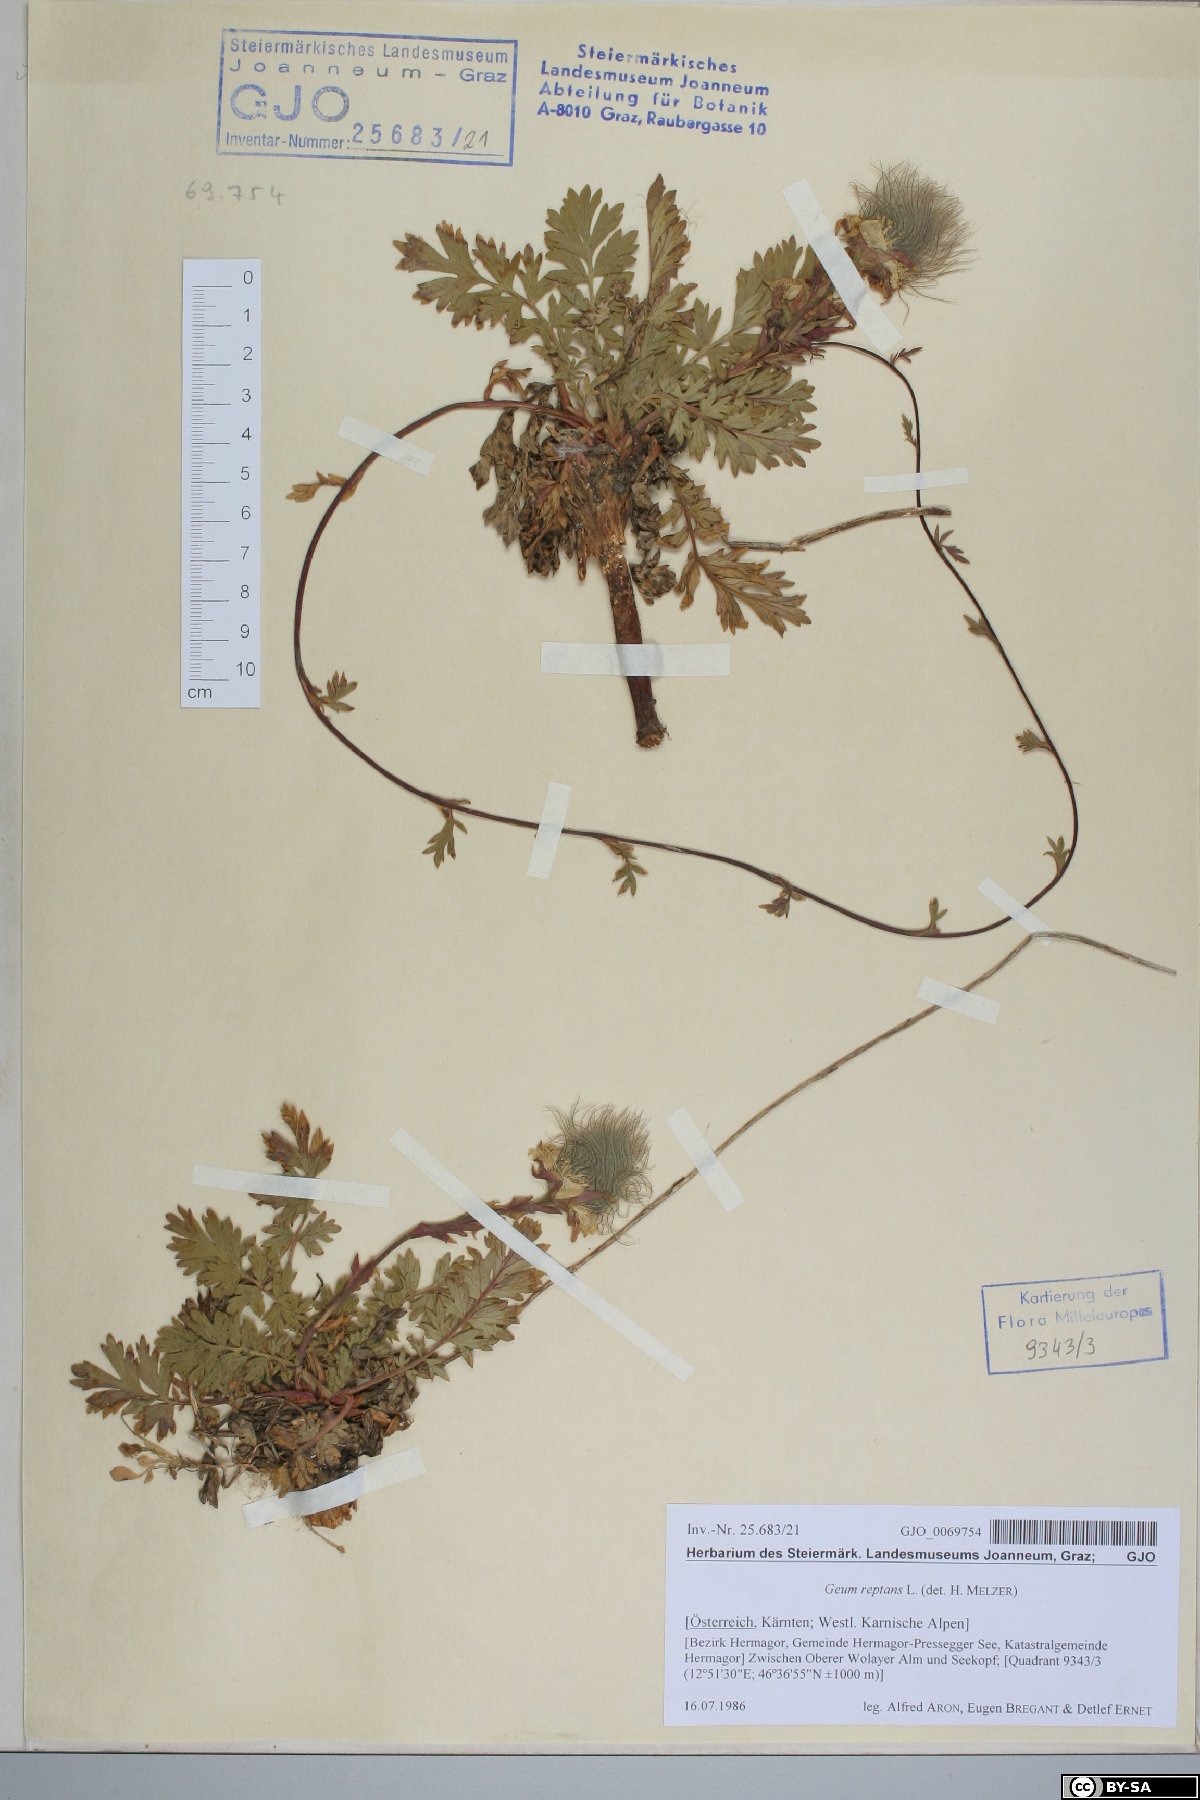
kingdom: Plantae
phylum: Tracheophyta
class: Magnoliopsida
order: Rosales
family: Rosaceae
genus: Geum
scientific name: Geum reptans
